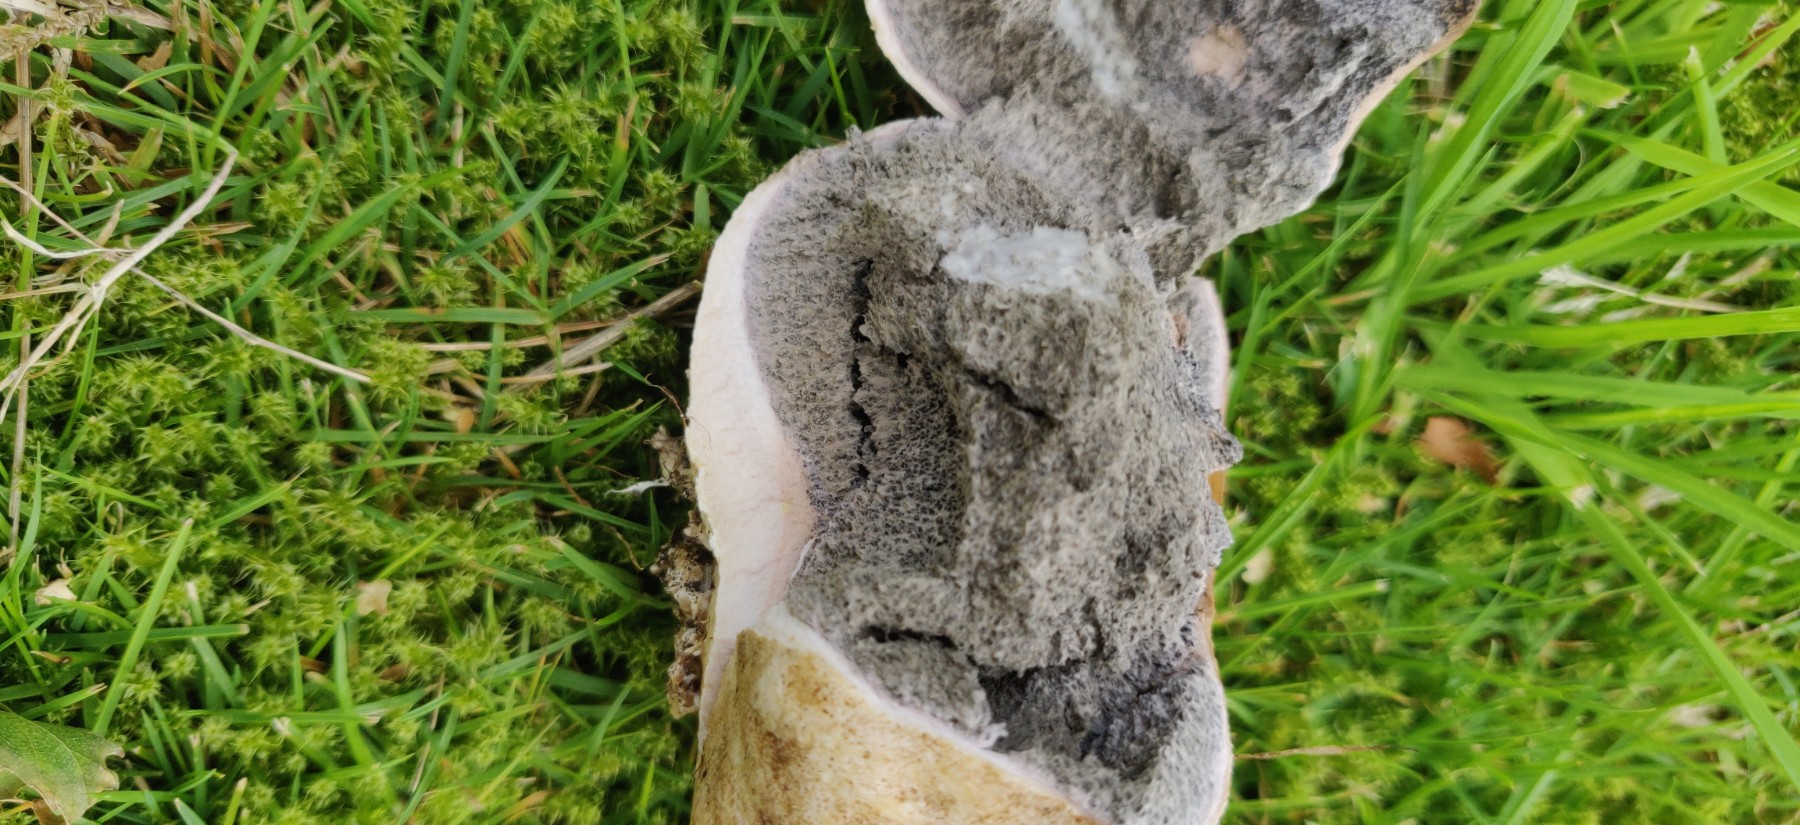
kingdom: Fungi
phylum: Basidiomycota
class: Agaricomycetes
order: Boletales
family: Sclerodermataceae
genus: Scleroderma
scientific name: Scleroderma bovista
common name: bovist-bruskbold
